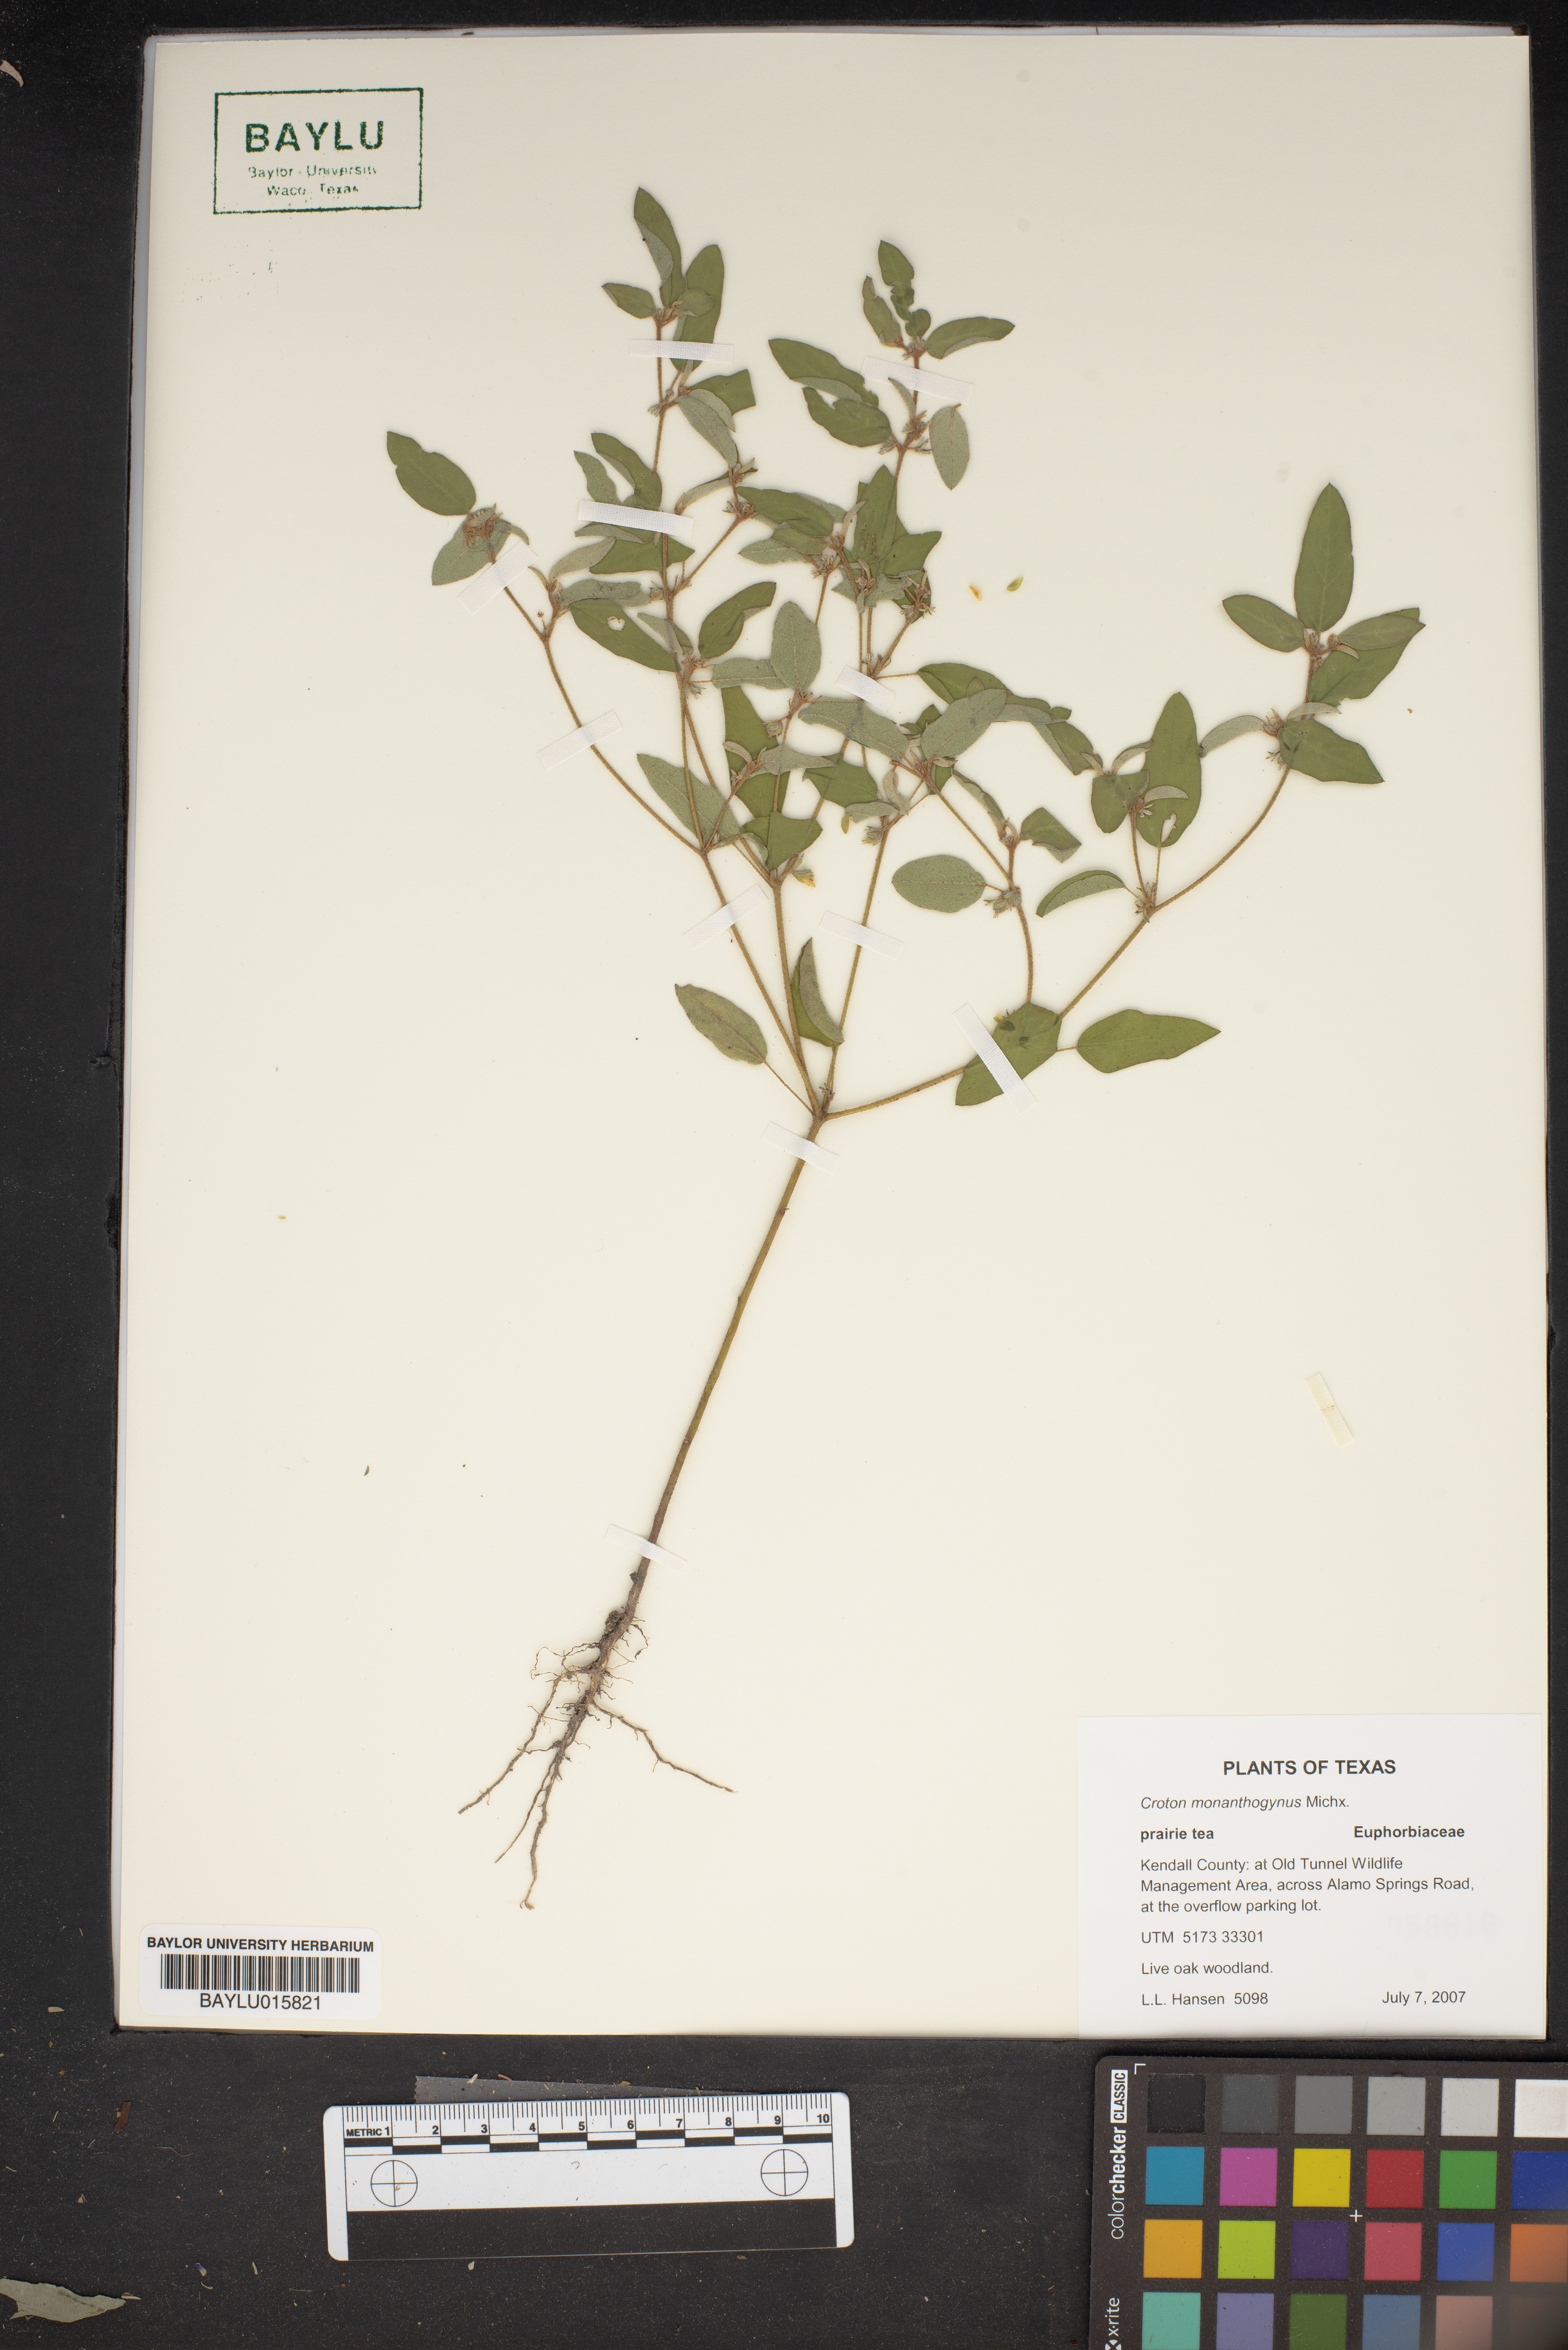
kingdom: Plantae
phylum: Tracheophyta
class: Magnoliopsida
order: Malpighiales
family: Euphorbiaceae
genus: Croton
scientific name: Croton monanthogynus
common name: One-seed croton
